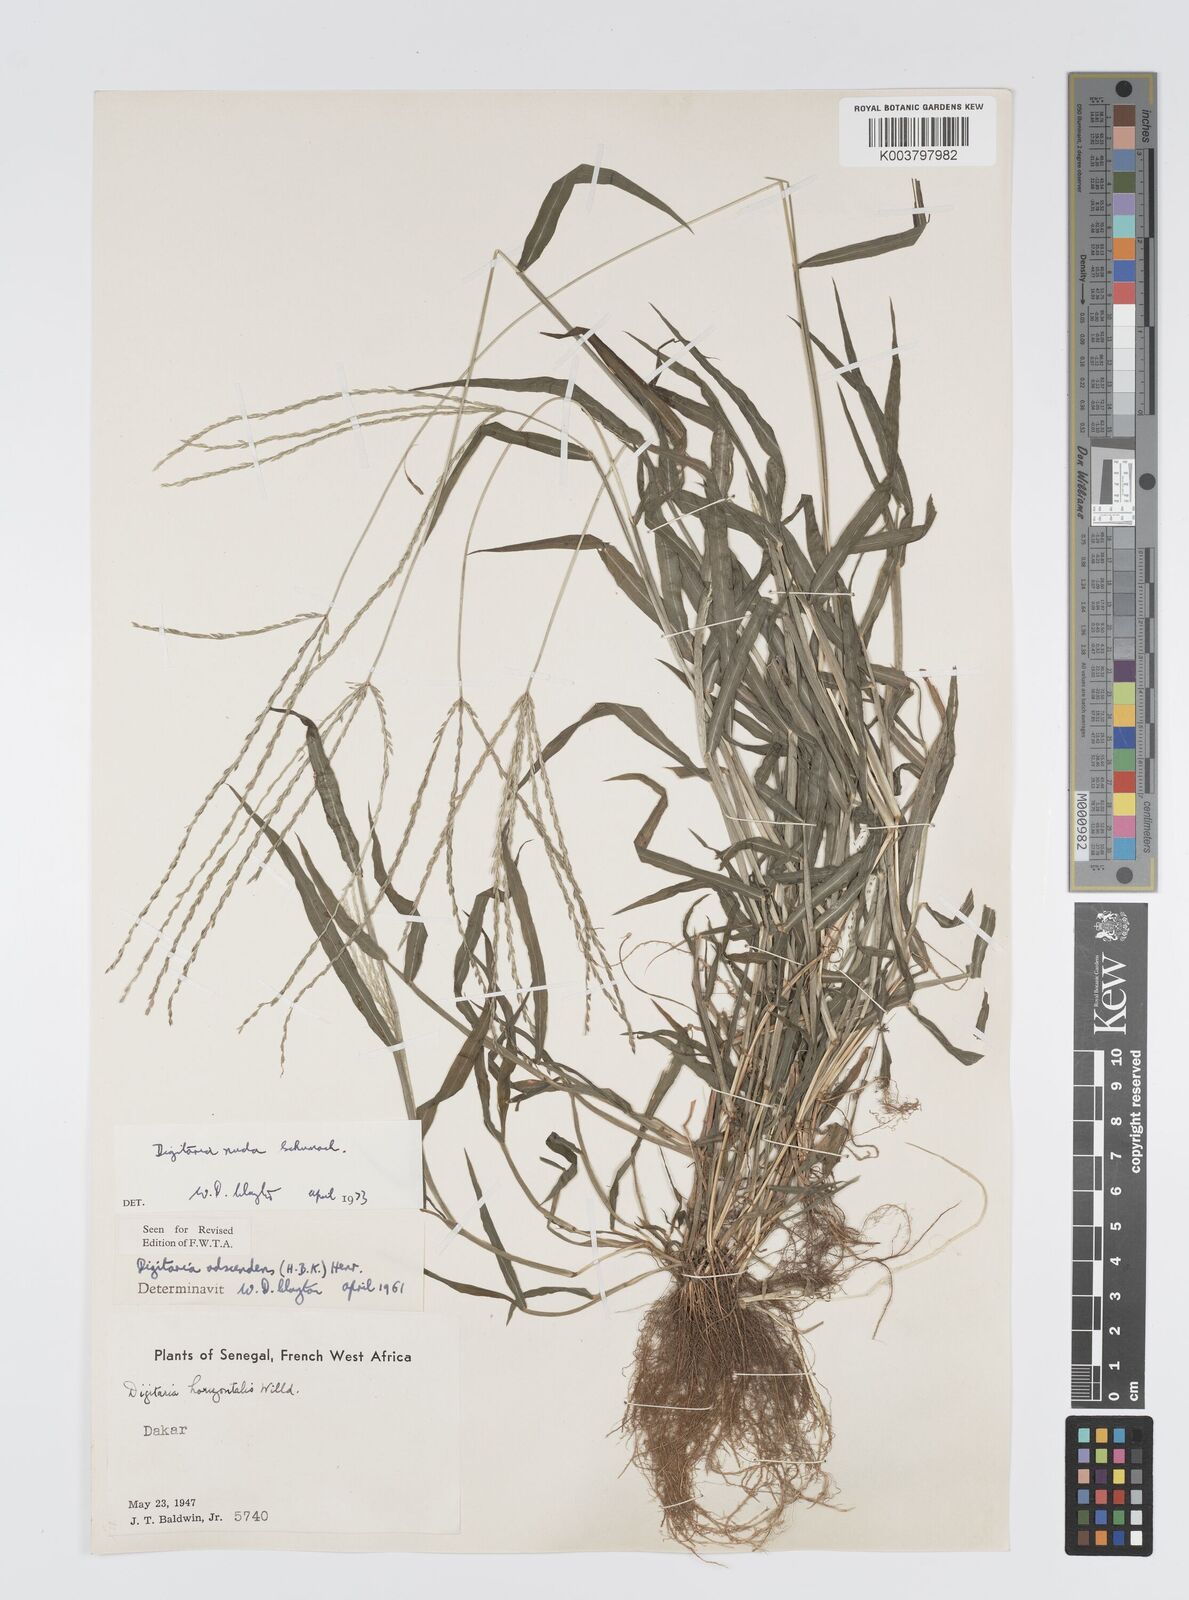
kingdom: Plantae
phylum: Tracheophyta
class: Liliopsida
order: Poales
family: Poaceae
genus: Digitaria
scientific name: Digitaria nuda
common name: Naked crabgrass
